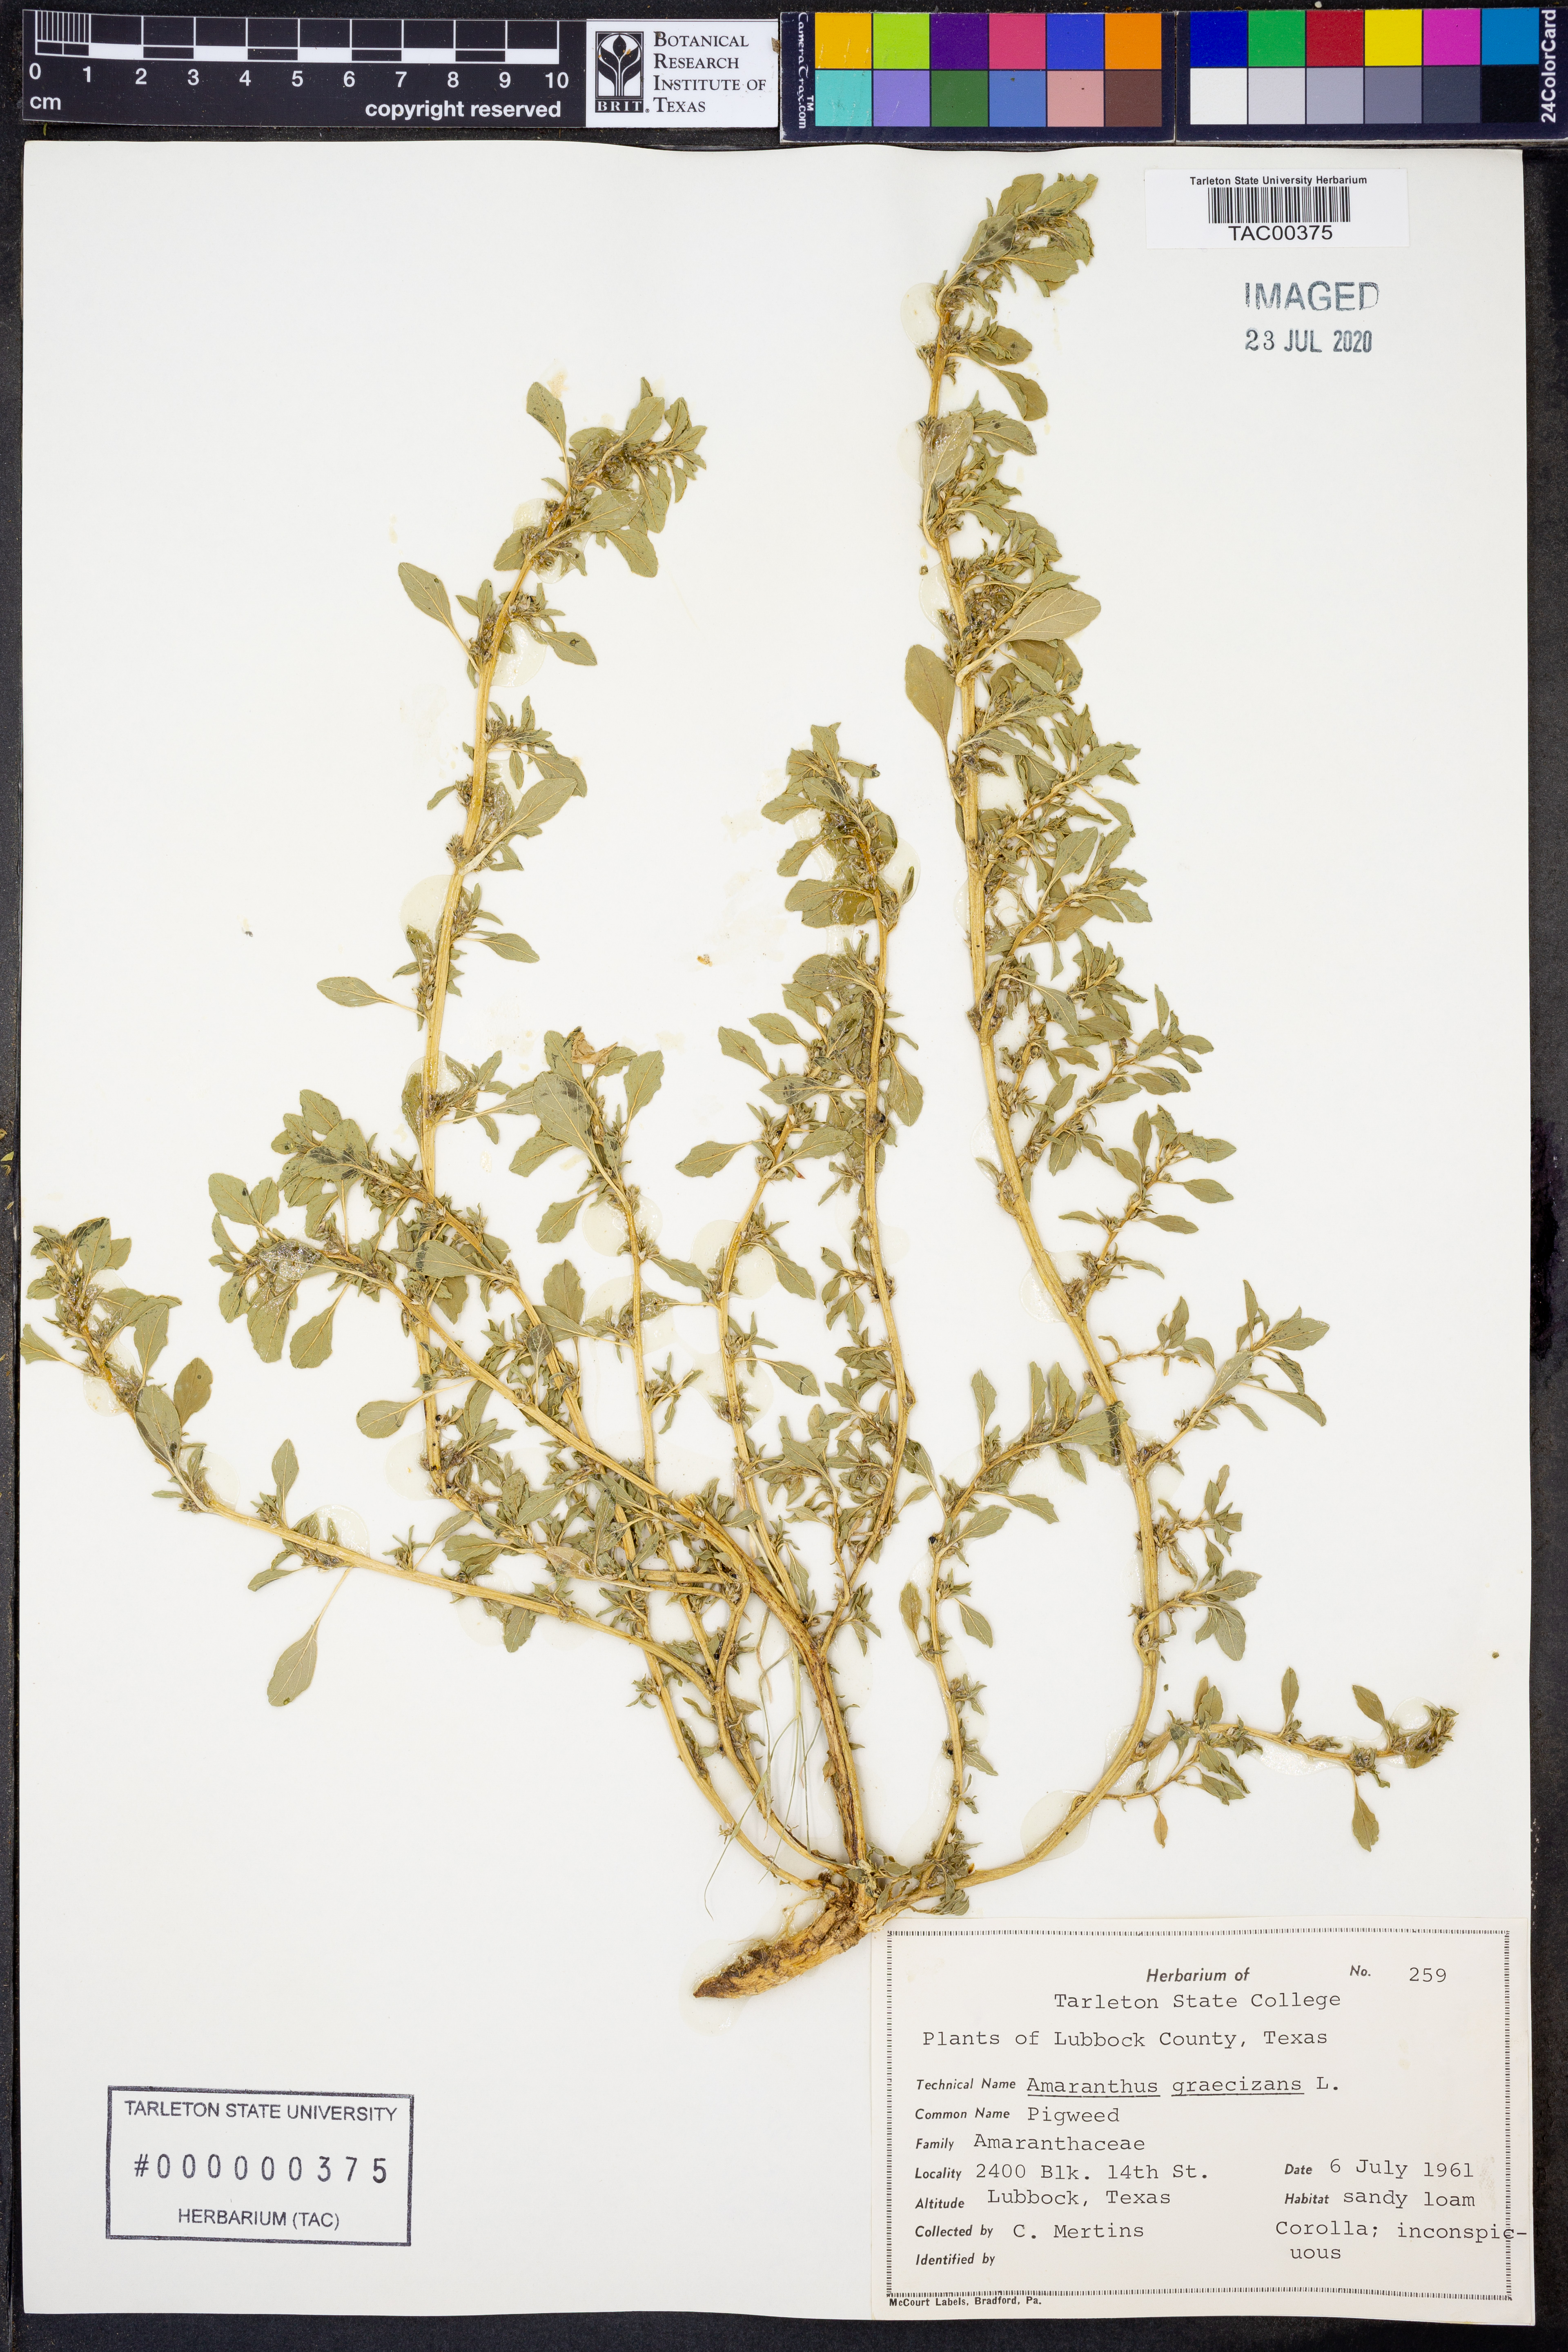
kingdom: Plantae
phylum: Tracheophyta
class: Magnoliopsida
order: Caryophyllales
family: Amaranthaceae
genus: Amaranthus
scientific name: Amaranthus graecizans
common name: Mediterranean amaranth
